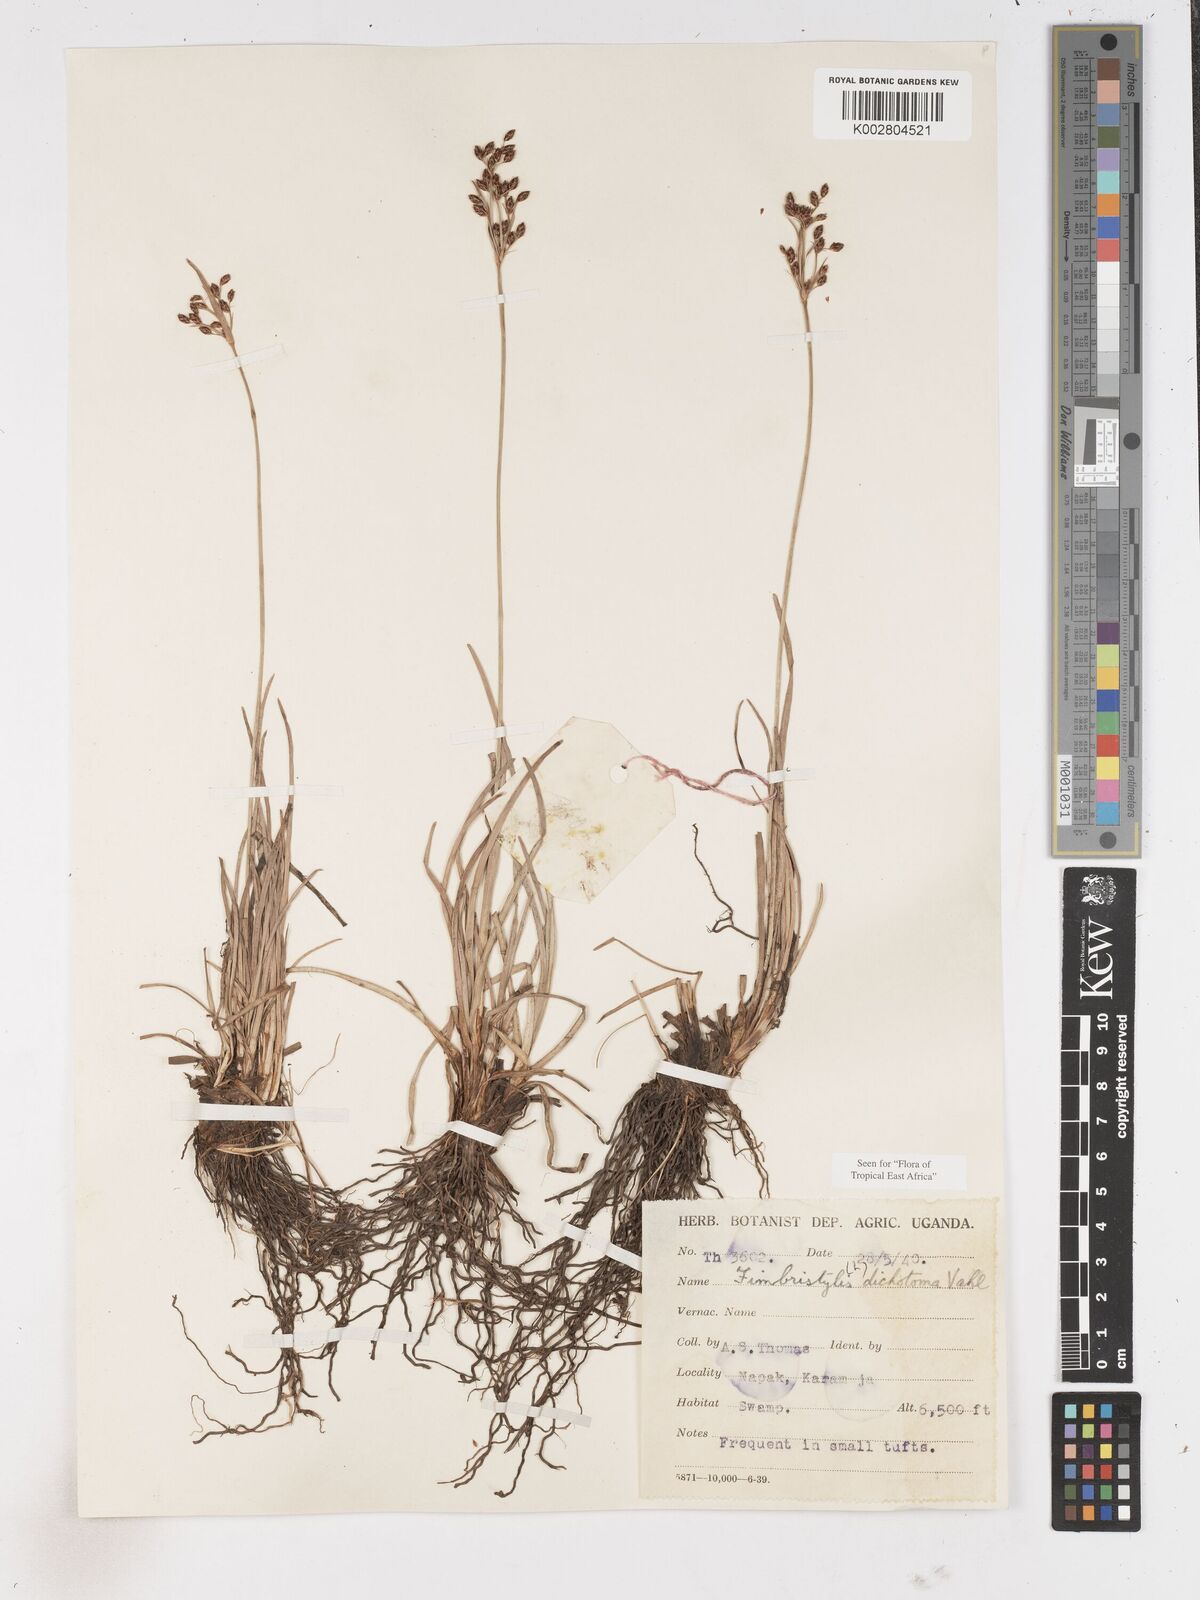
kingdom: Plantae
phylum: Tracheophyta
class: Liliopsida
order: Poales
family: Cyperaceae
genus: Fimbristylis
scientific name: Fimbristylis dichotoma
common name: Forked fimbry
